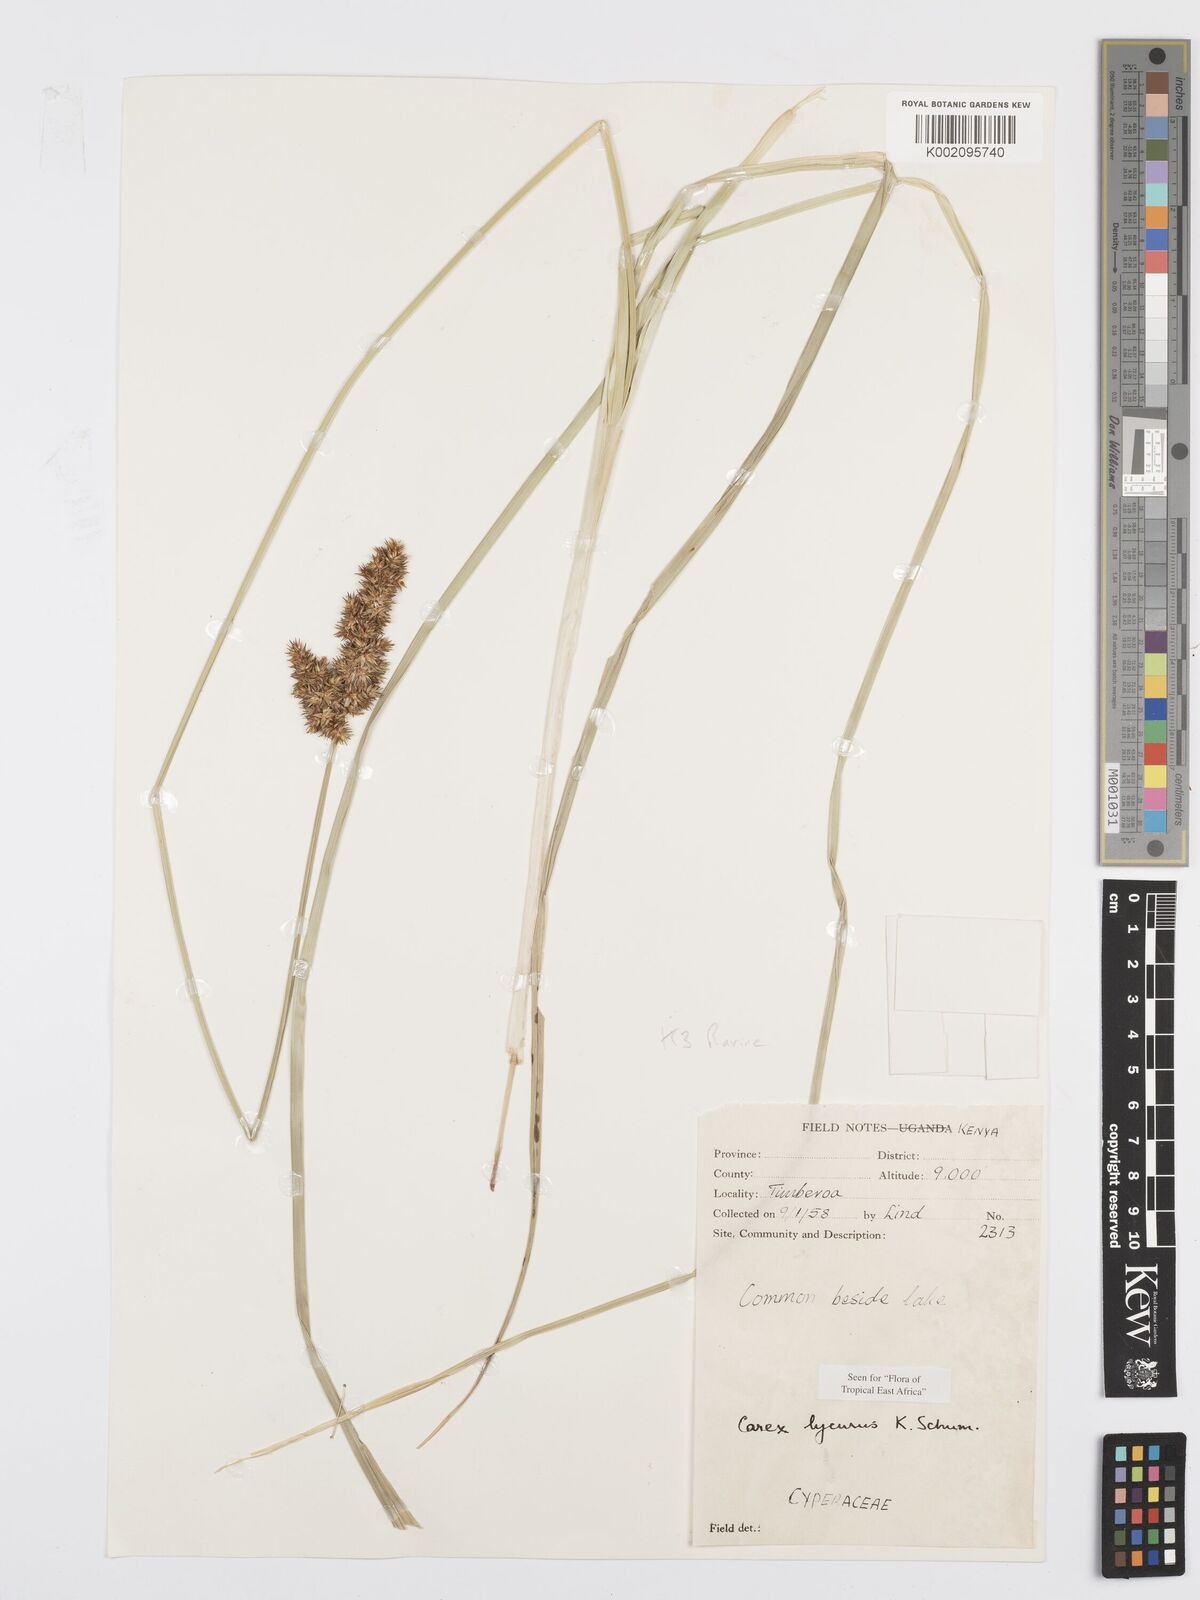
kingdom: Plantae
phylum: Tracheophyta
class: Liliopsida
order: Poales
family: Cyperaceae
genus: Carex
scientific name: Carex lycurus
